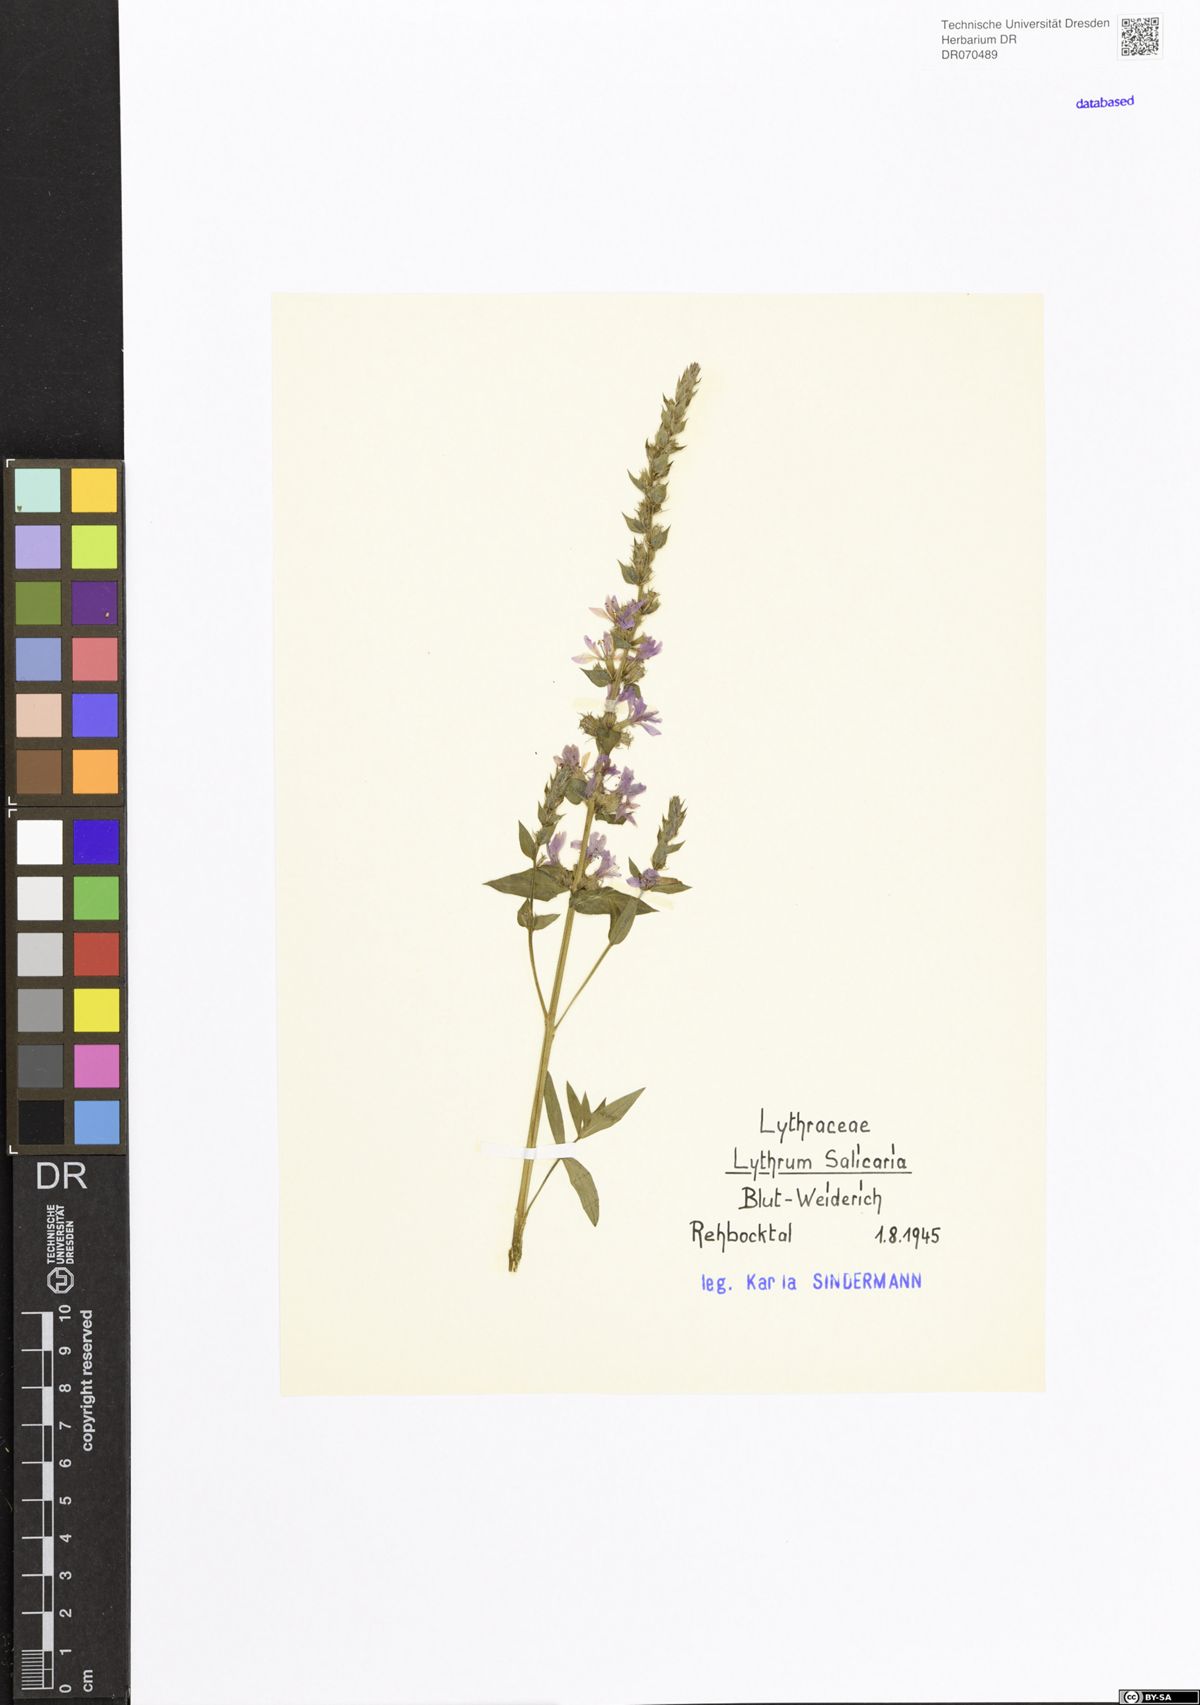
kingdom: Plantae
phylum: Tracheophyta
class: Magnoliopsida
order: Myrtales
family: Lythraceae
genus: Lythrum
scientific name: Lythrum salicaria
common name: Purple loosestrife
